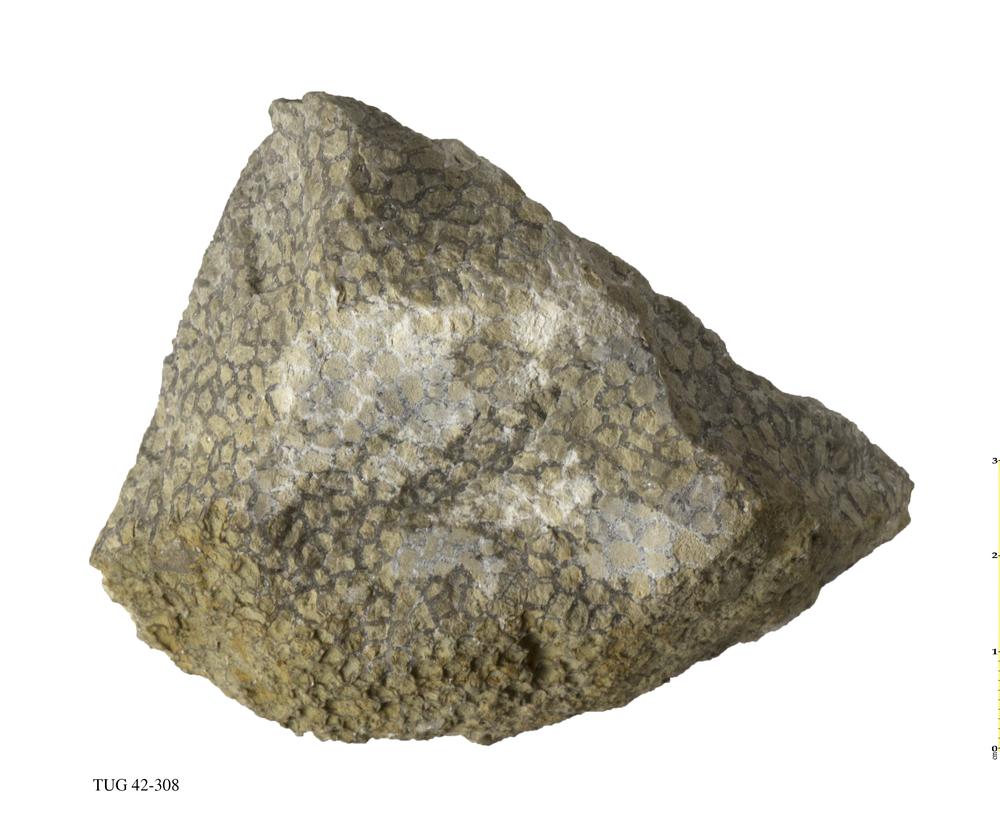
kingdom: Animalia
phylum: Cnidaria
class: Anthozoa
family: Cateniporidae
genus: Catenipora
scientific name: Catenipora exilis
